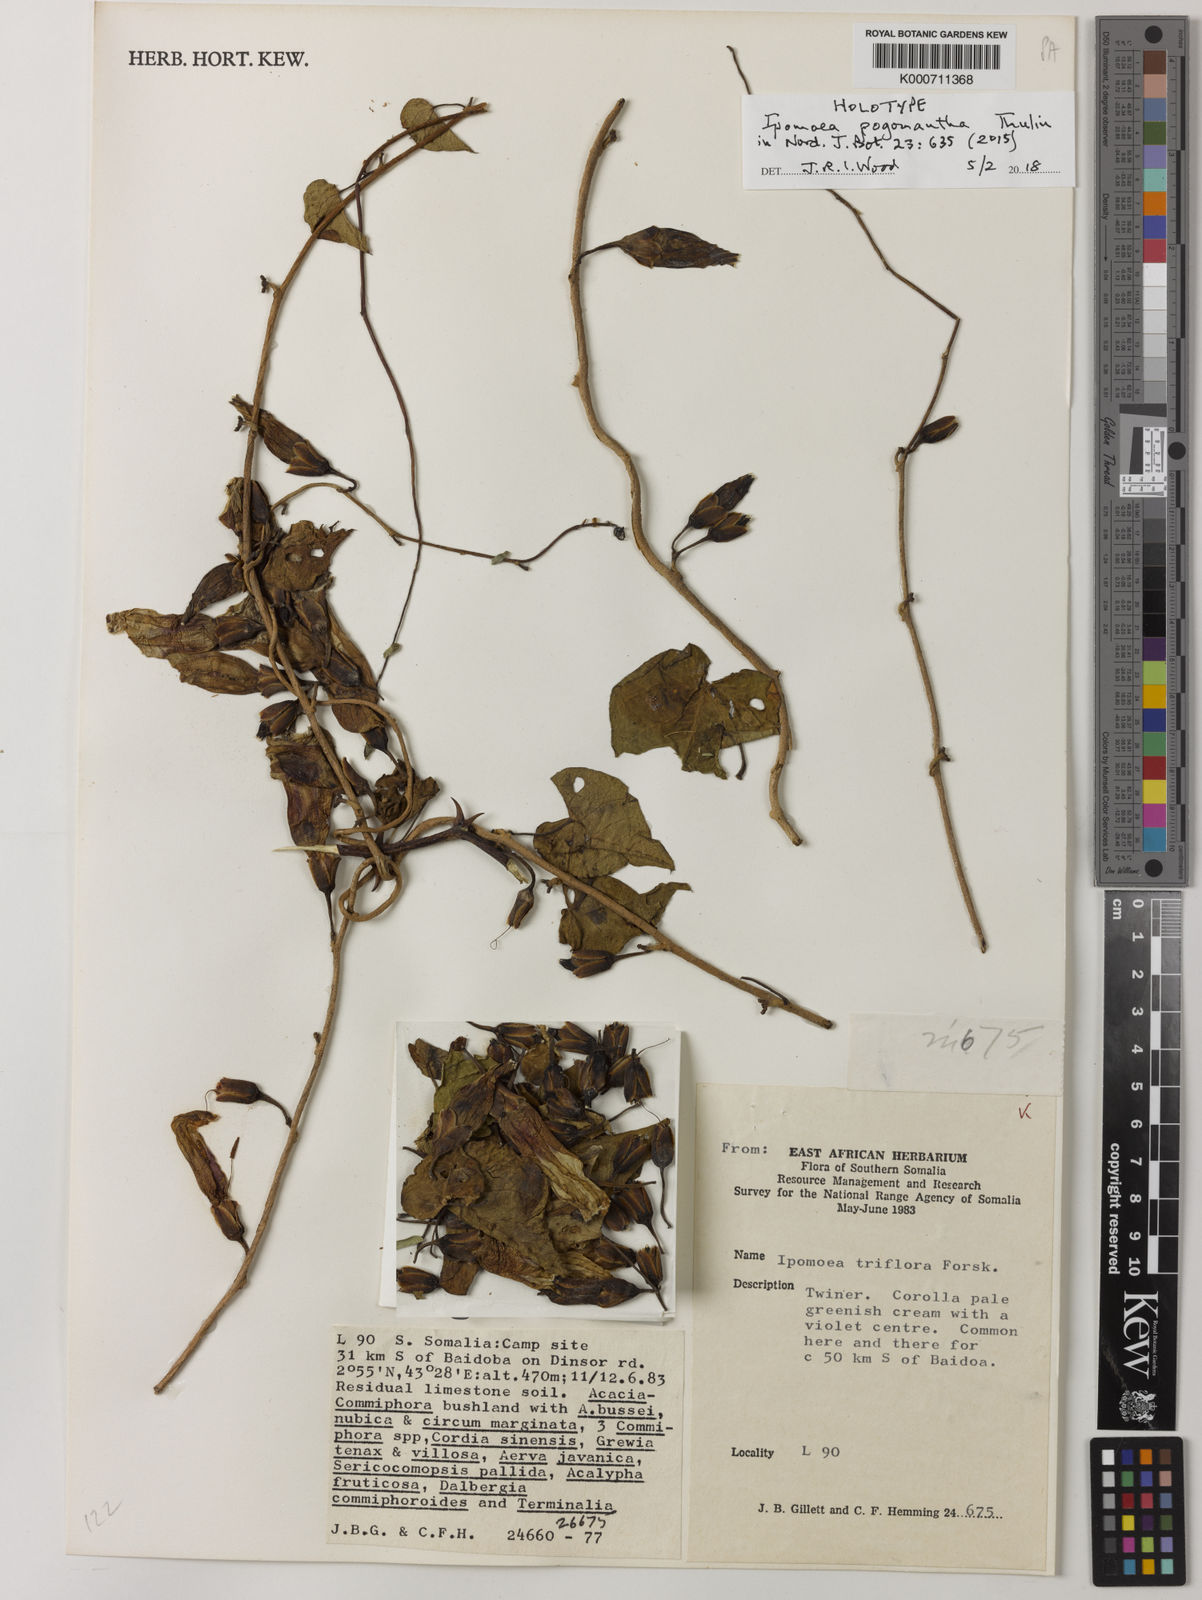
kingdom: Plantae
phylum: Tracheophyta
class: Magnoliopsida
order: Solanales
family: Convolvulaceae
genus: Ipomoea
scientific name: Ipomoea pogonantha
